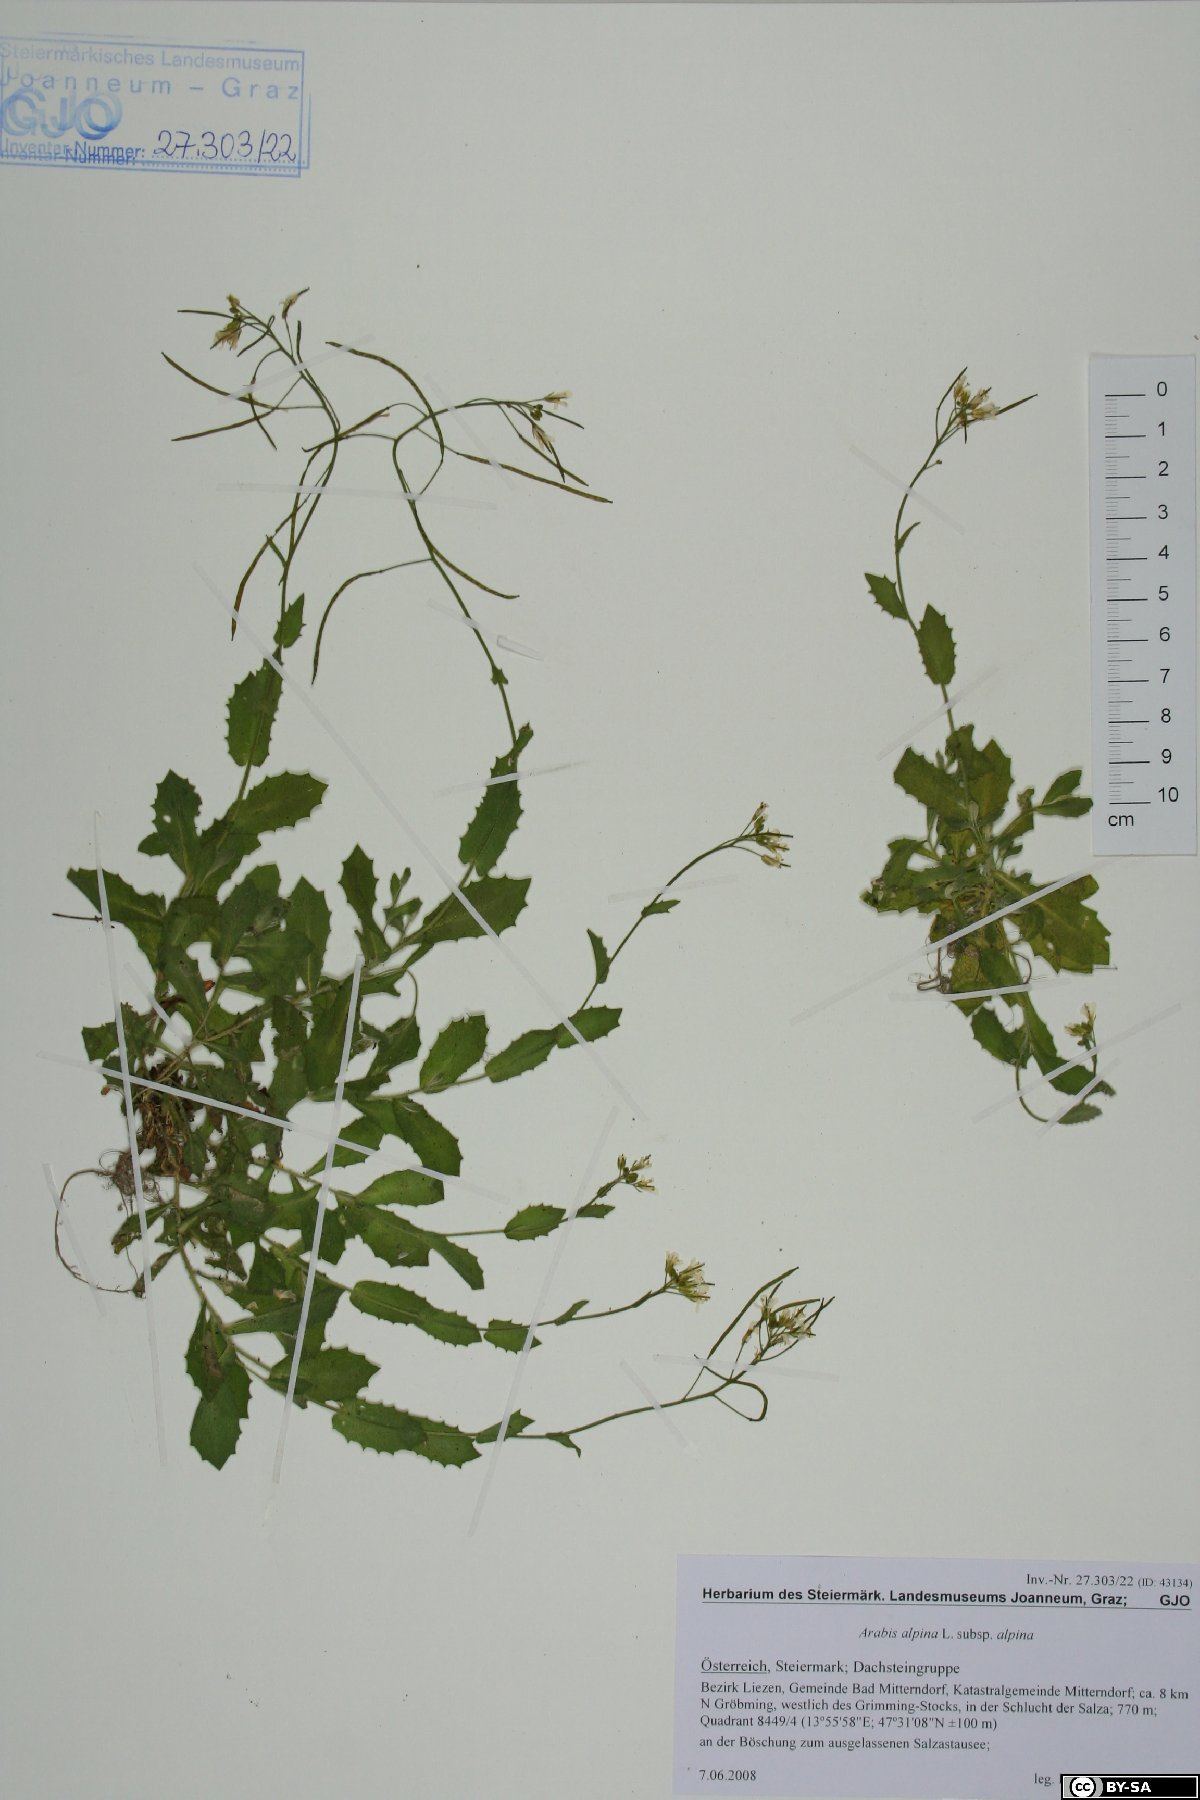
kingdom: Plantae
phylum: Tracheophyta
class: Magnoliopsida
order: Brassicales
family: Brassicaceae
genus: Arabis
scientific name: Arabis alpina
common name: Alpine rock-cress
